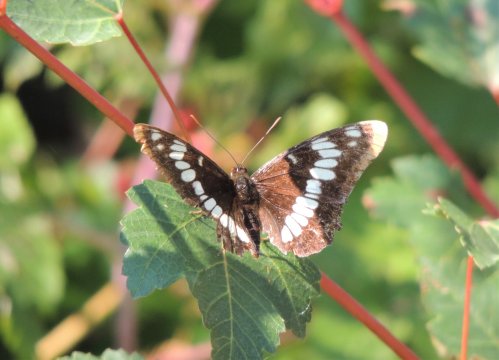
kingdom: Animalia
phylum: Arthropoda
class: Insecta
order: Lepidoptera
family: Nymphalidae
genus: Limenitis
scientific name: Limenitis lorquini
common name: Lorquin's Admiral
